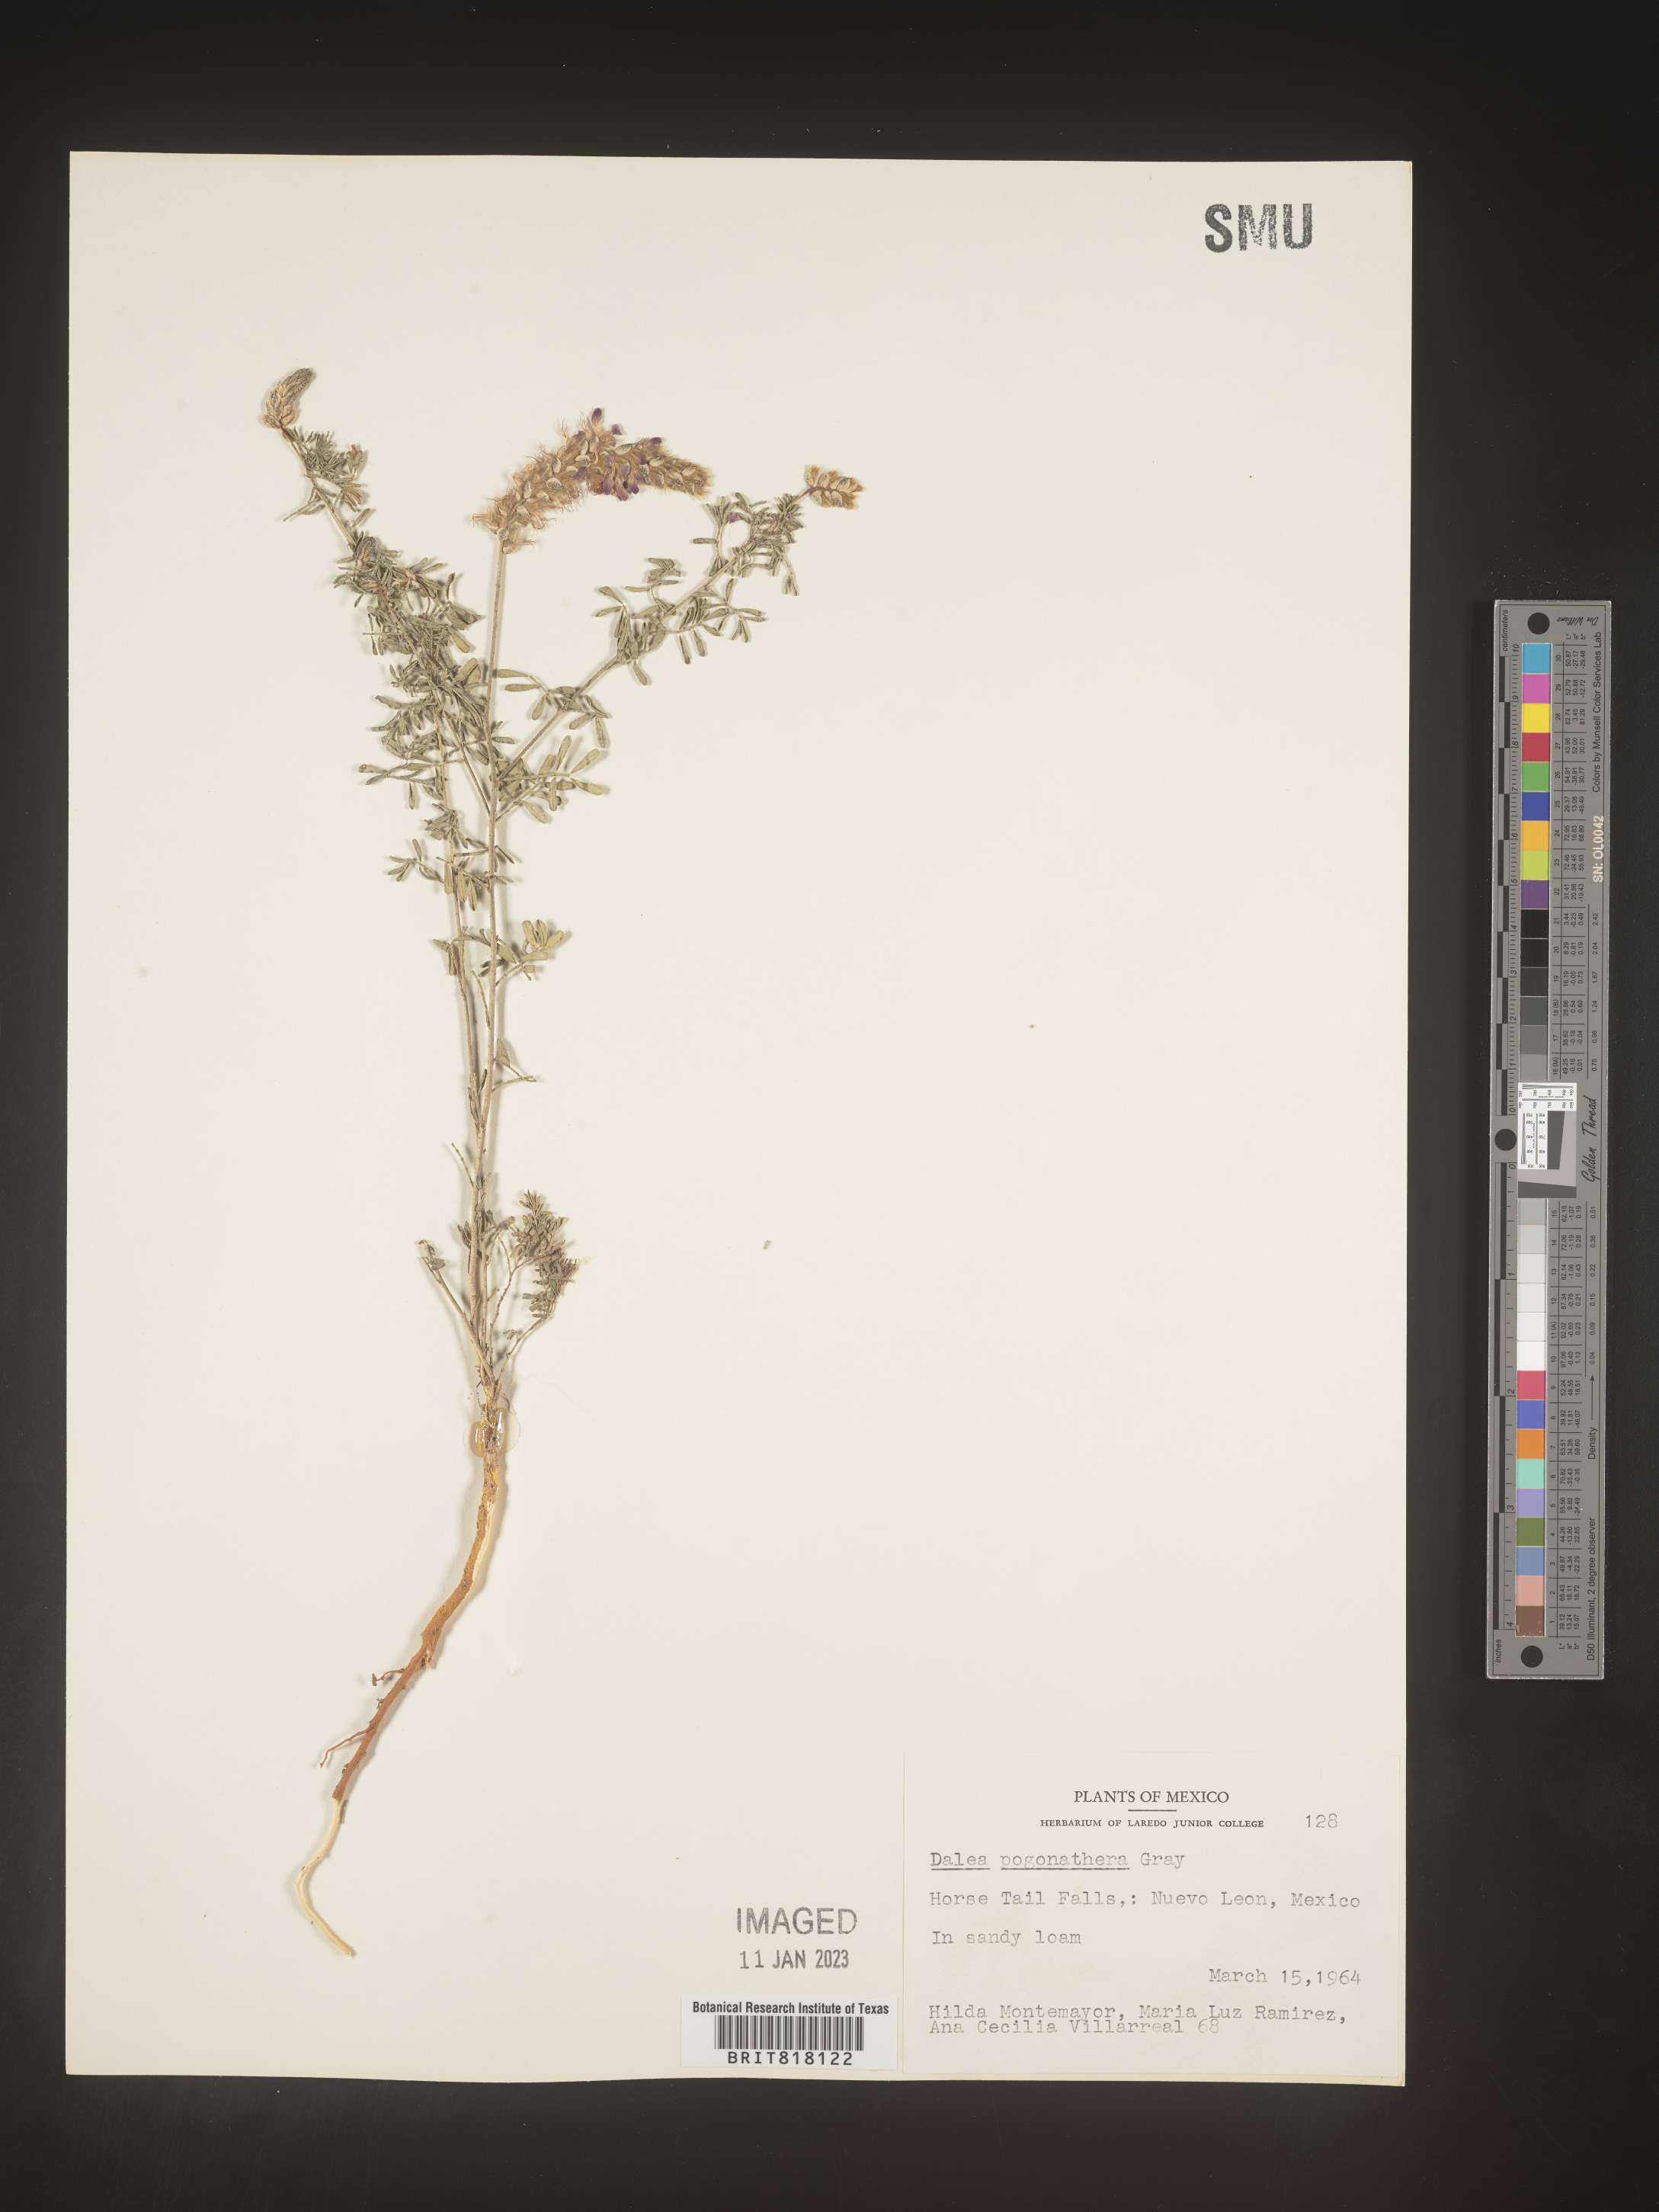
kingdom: Plantae
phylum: Tracheophyta
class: Magnoliopsida
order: Fabales
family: Fabaceae
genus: Dalea
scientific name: Dalea
